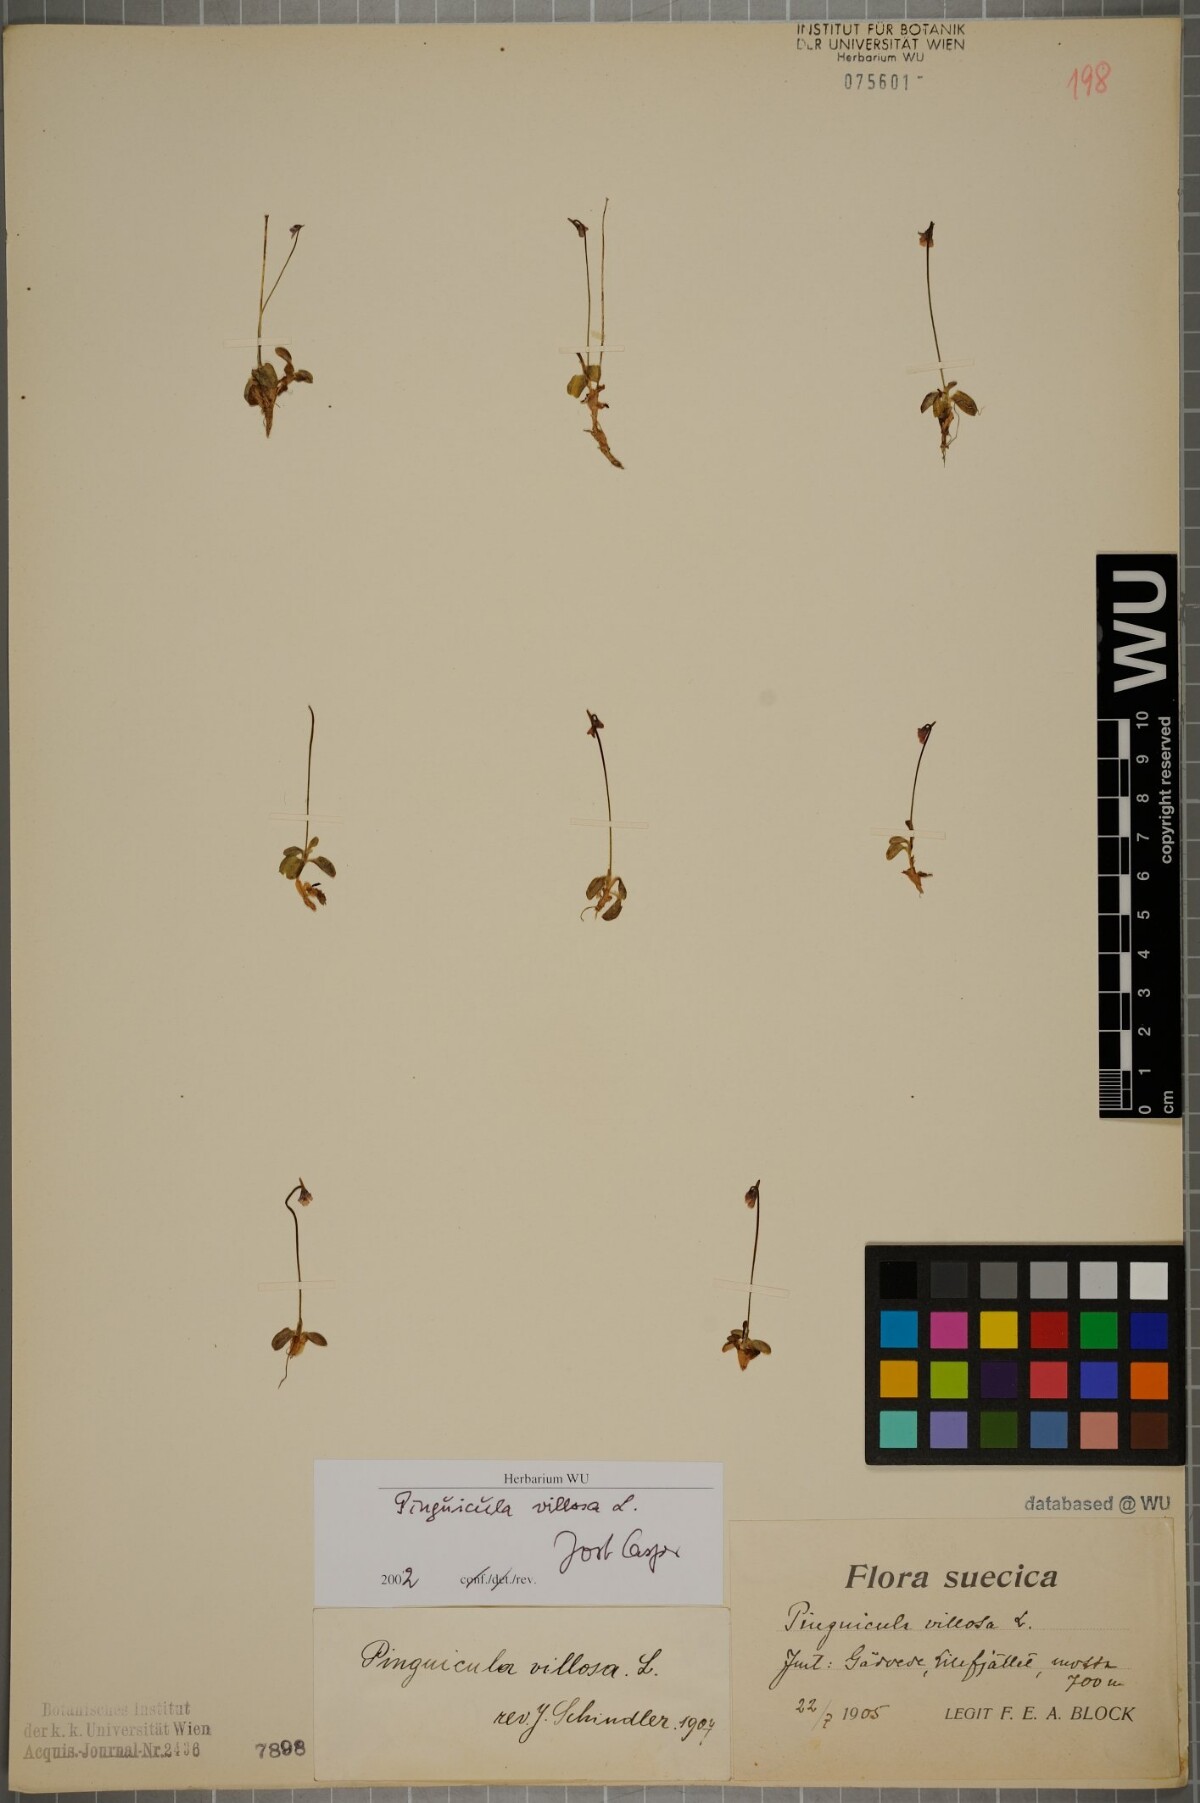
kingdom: Plantae
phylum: Tracheophyta
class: Magnoliopsida
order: Lamiales
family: Lentibulariaceae
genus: Pinguicula
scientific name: Pinguicula villosa
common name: Hairy butterwort
